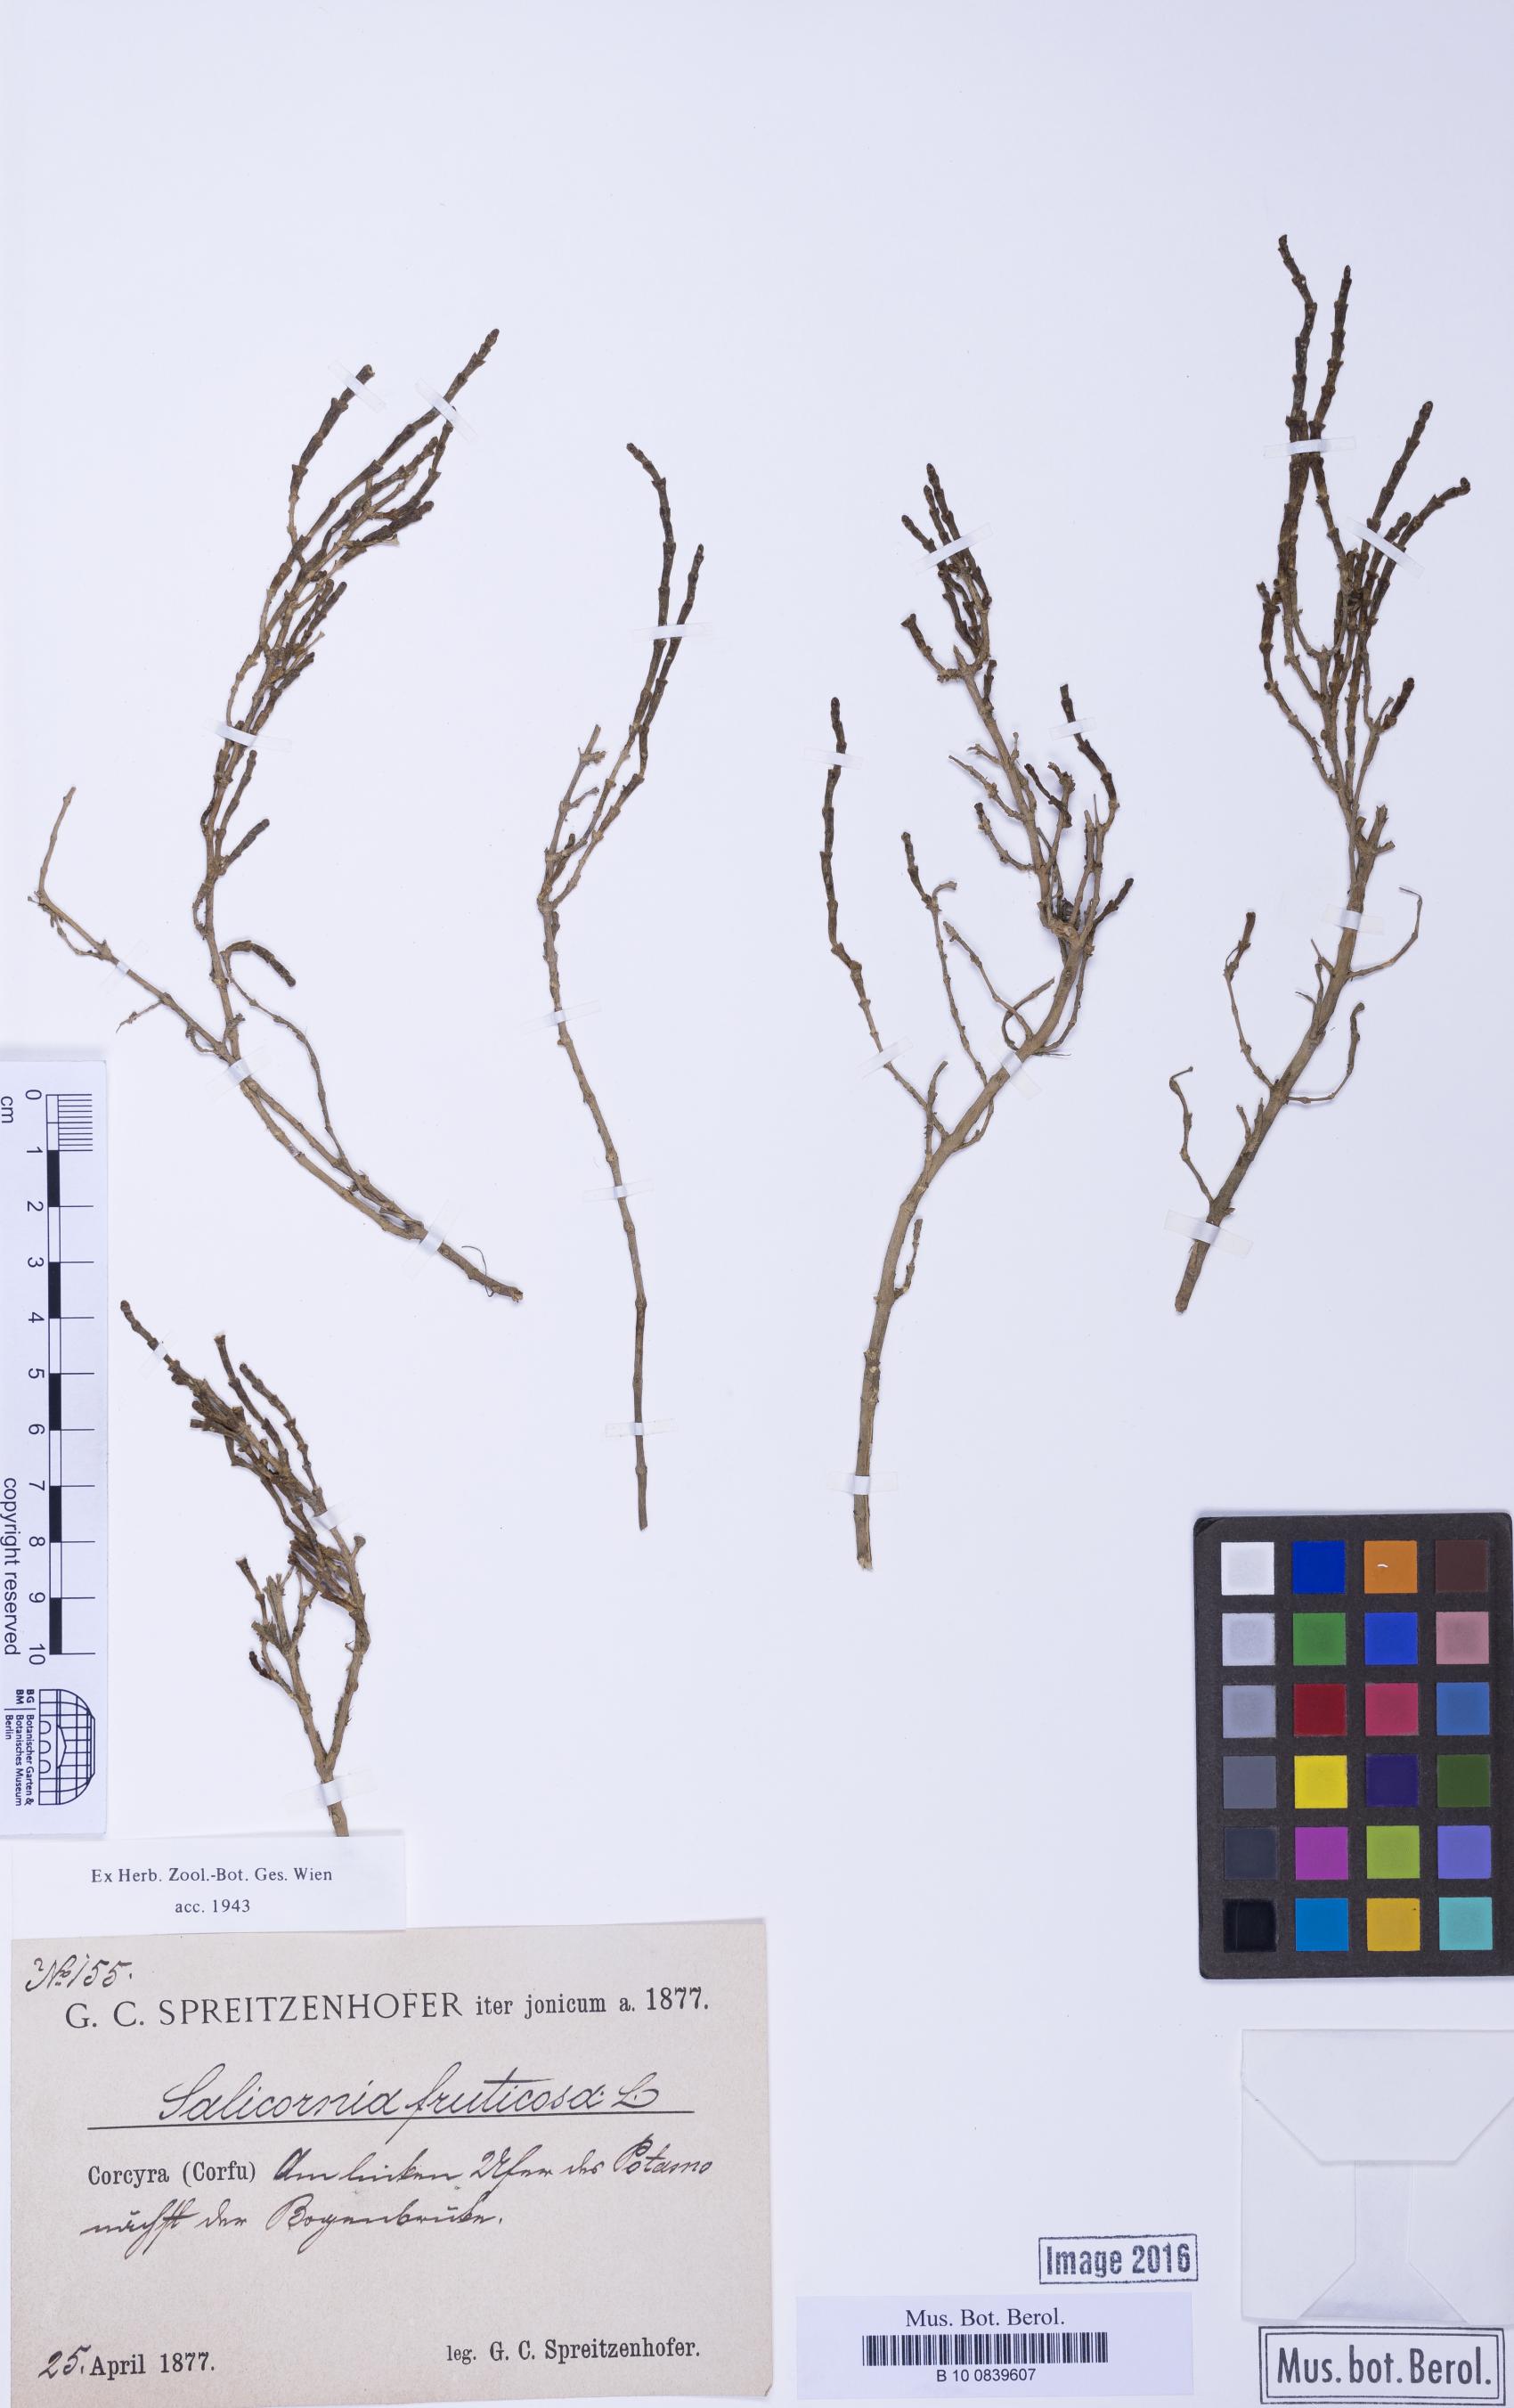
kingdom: Plantae
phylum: Tracheophyta
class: Magnoliopsida
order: Caryophyllales
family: Amaranthaceae
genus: Salicornia
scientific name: Salicornia perennis
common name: Chicken claws
